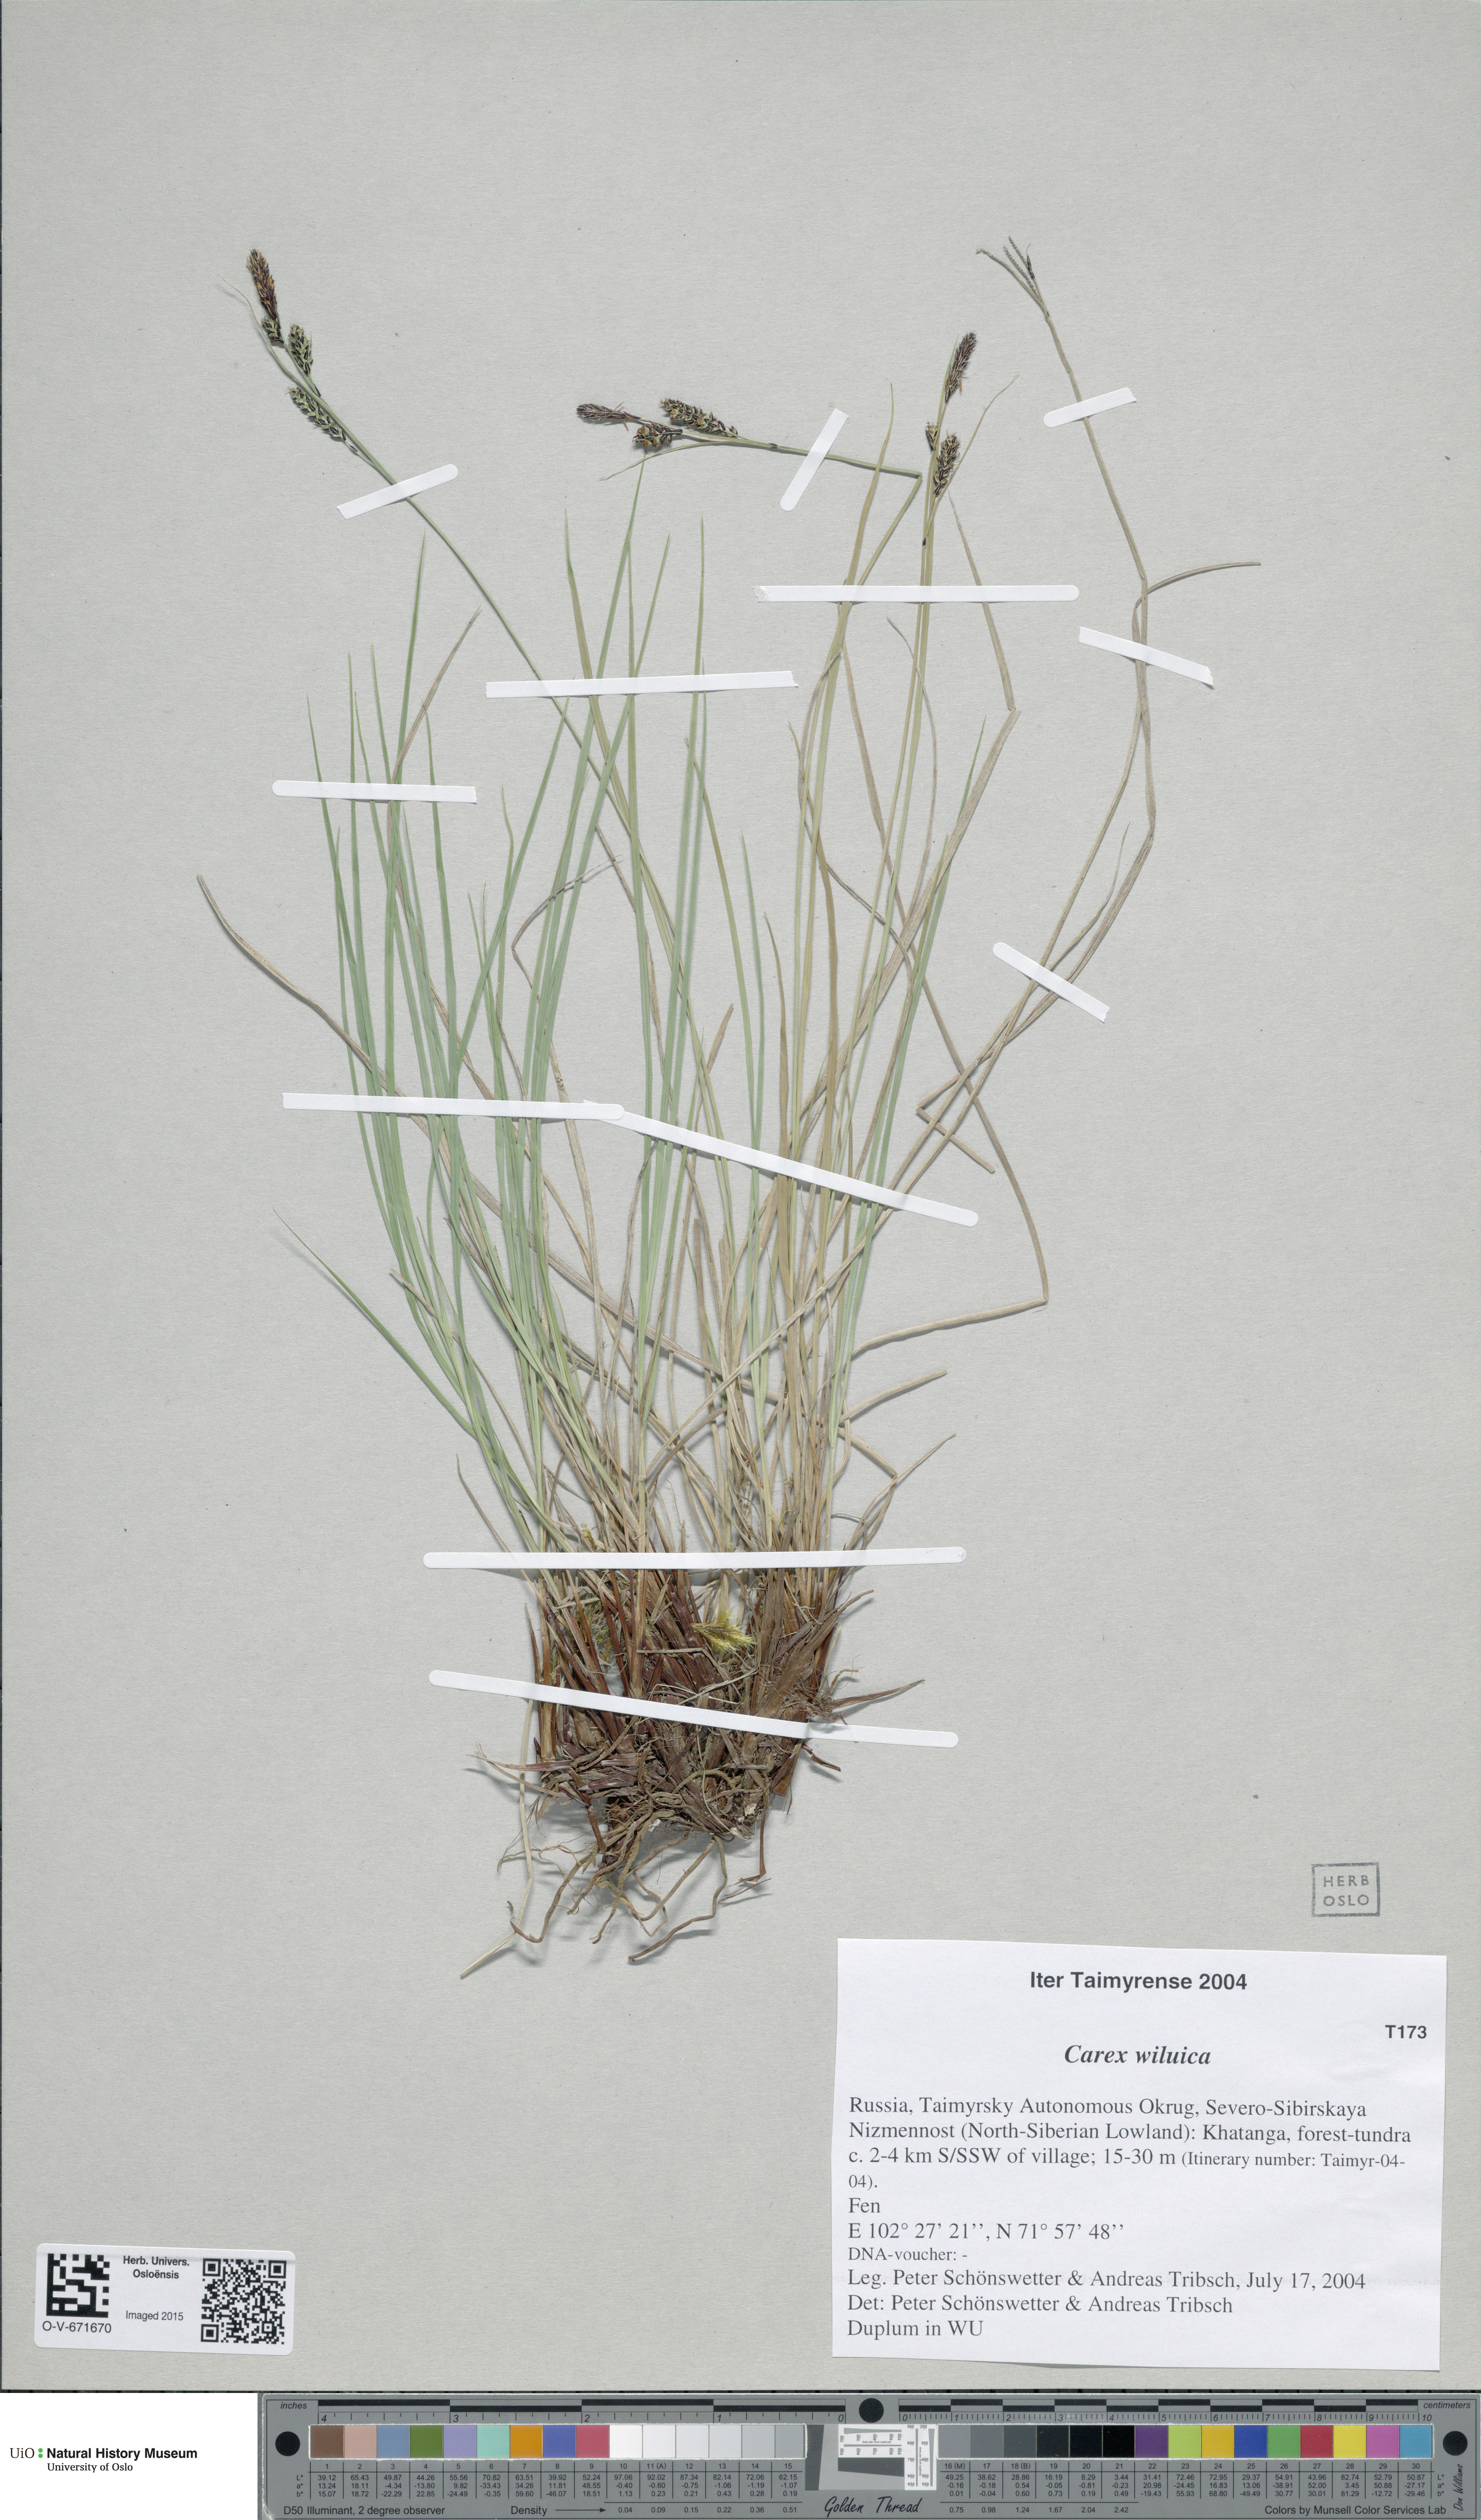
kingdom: Plantae
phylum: Tracheophyta
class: Liliopsida
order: Poales
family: Cyperaceae
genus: Carex
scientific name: Carex nigra
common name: Common sedge
